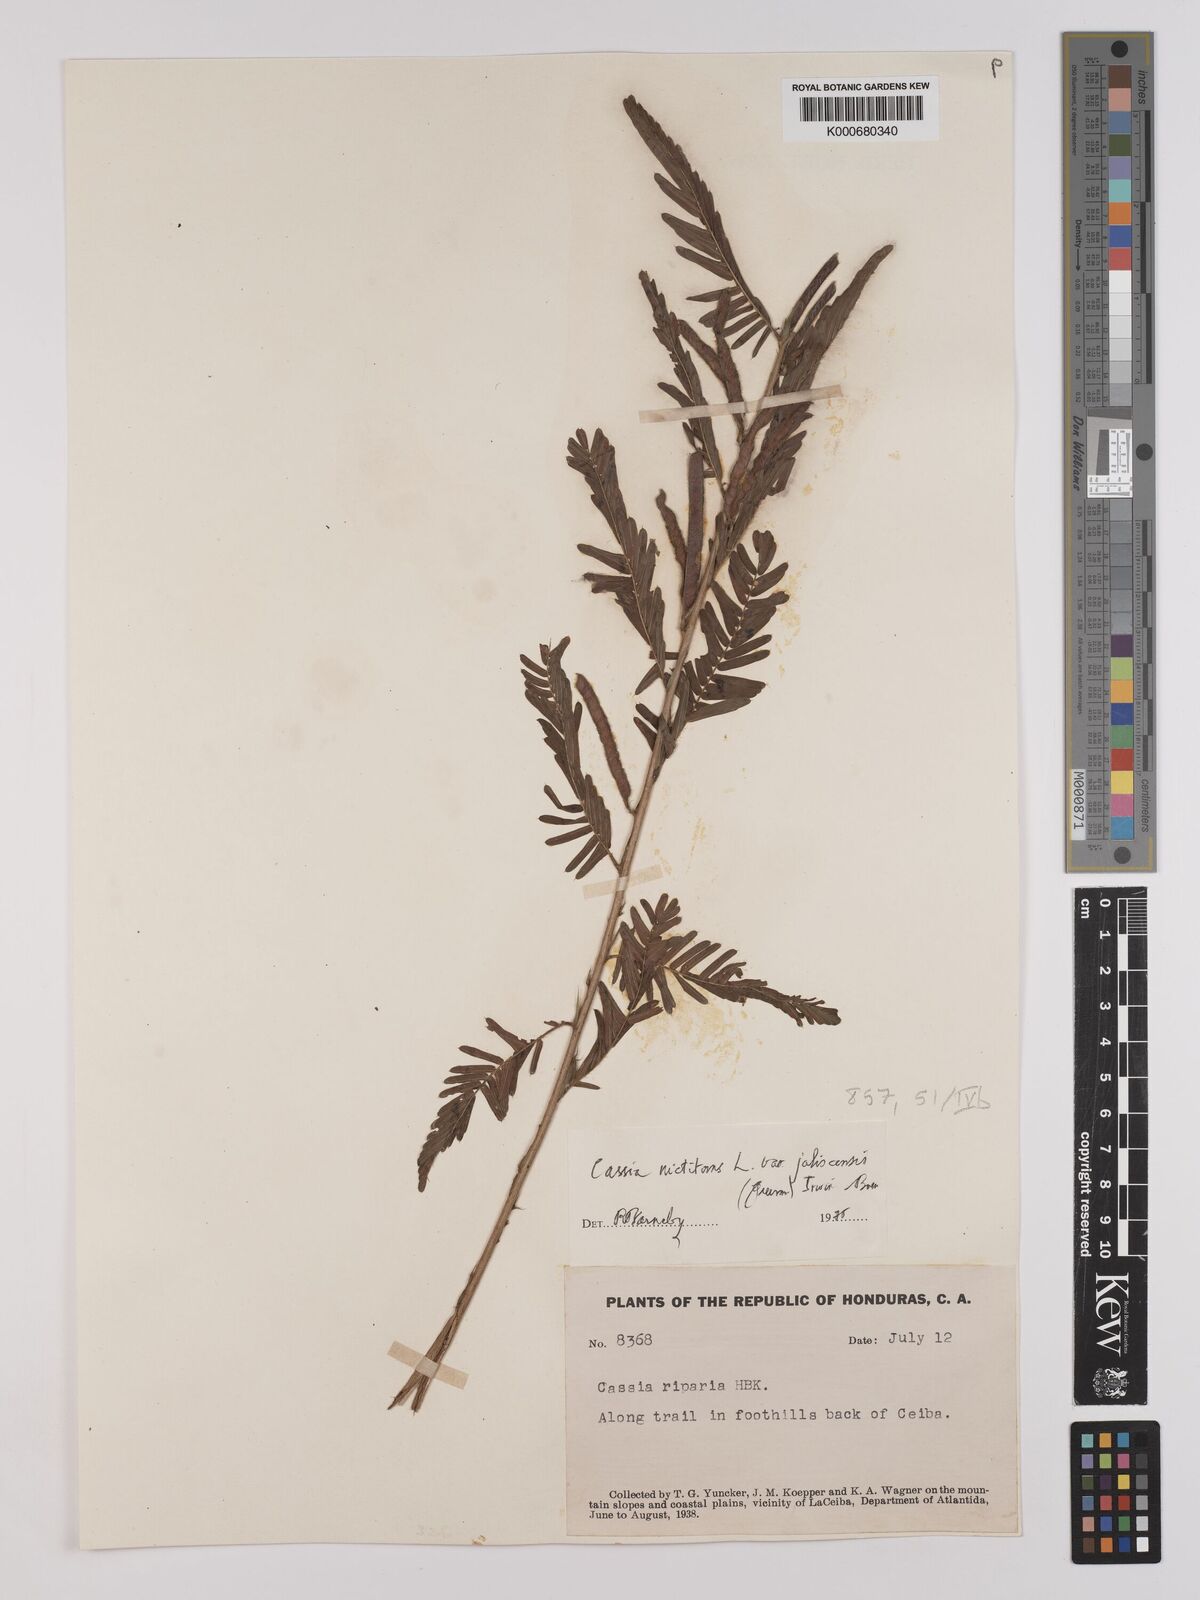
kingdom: Plantae
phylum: Tracheophyta
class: Magnoliopsida
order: Fabales
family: Fabaceae
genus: Chamaecrista
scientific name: Chamaecrista nictitans
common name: Sensitive cassia
